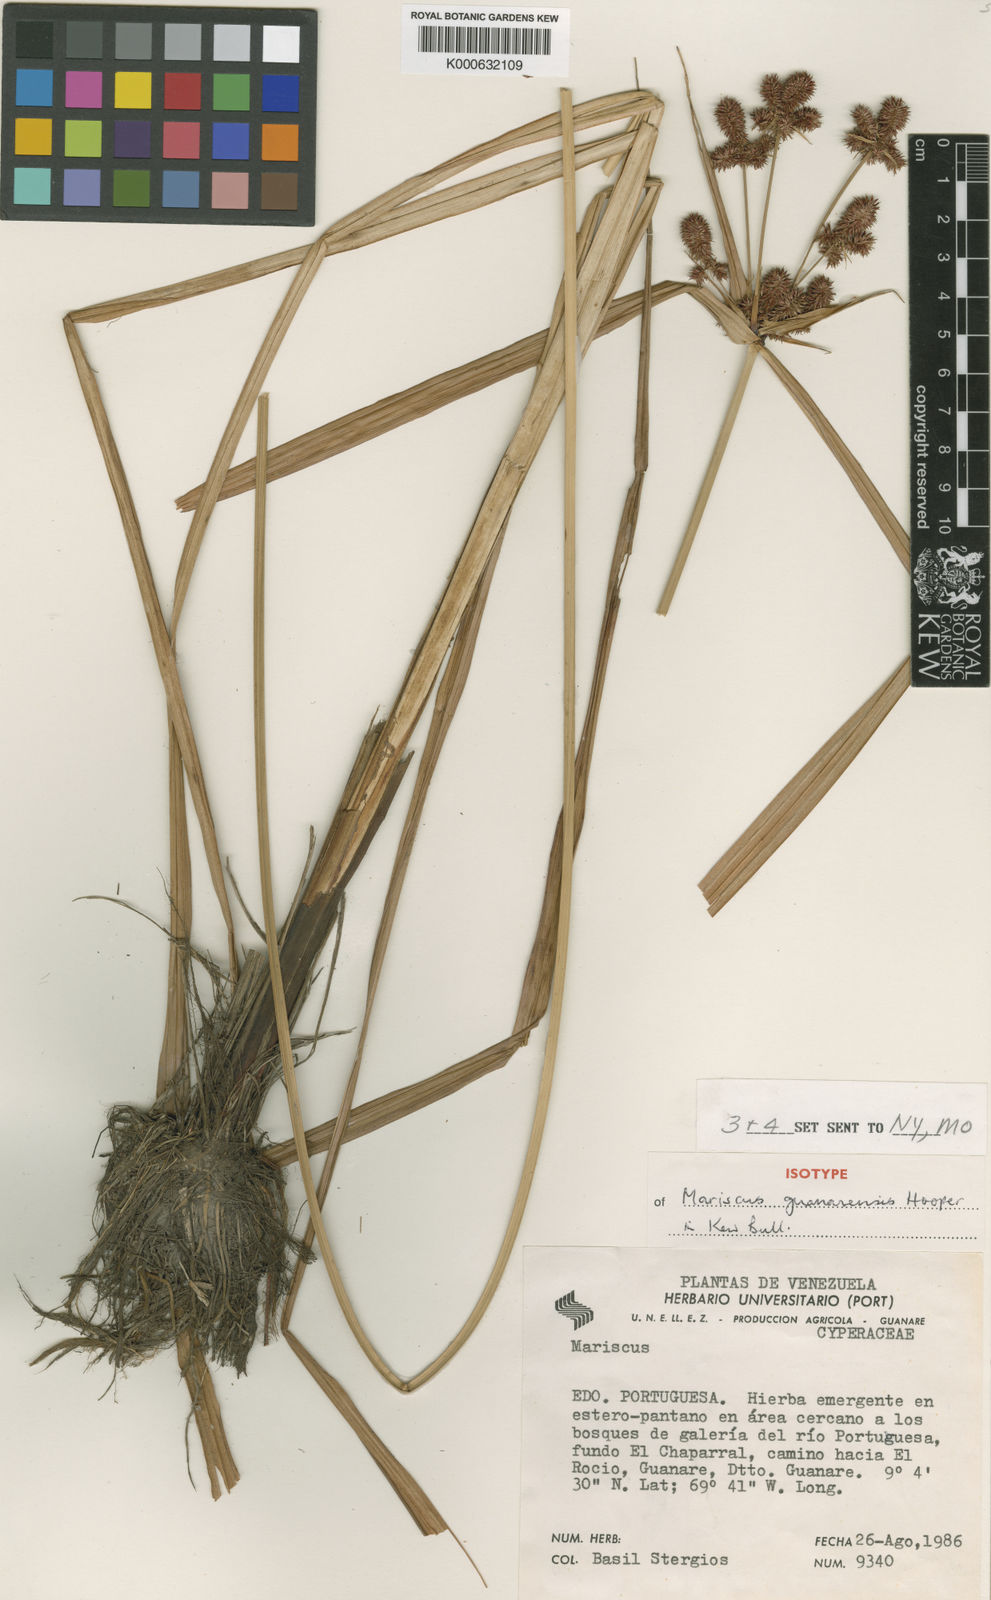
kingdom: Plantae
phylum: Tracheophyta
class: Liliopsida
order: Poales
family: Cyperaceae
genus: Cyperus
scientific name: Cyperus
